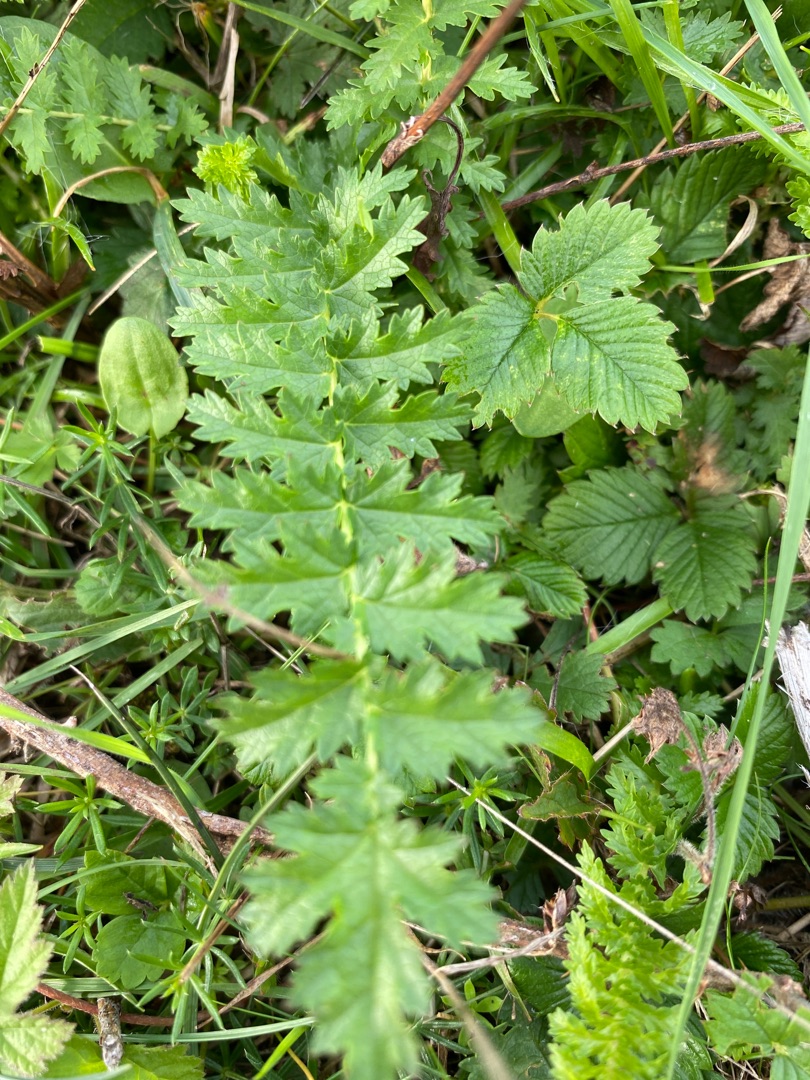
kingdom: Plantae
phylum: Tracheophyta
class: Magnoliopsida
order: Rosales
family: Rosaceae
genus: Filipendula
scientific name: Filipendula vulgaris
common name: Knoldet mjødurt
